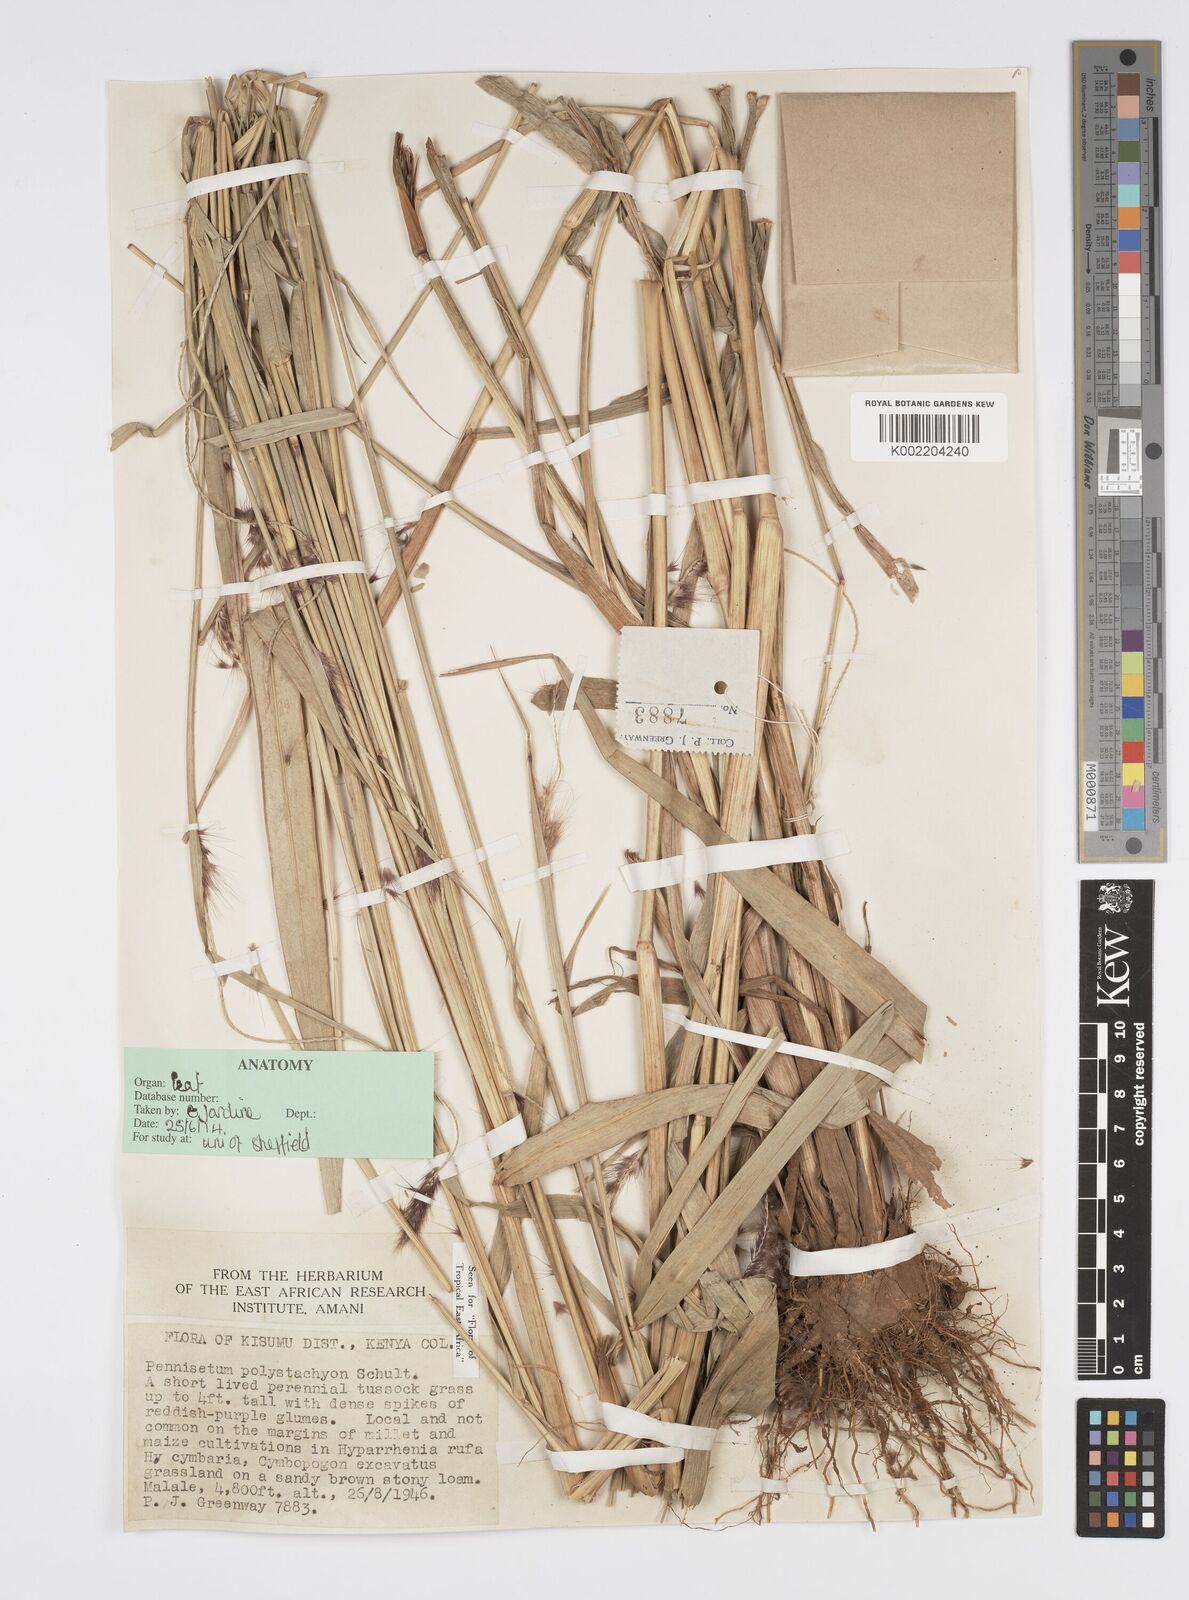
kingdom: Plantae
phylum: Tracheophyta
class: Liliopsida
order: Poales
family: Poaceae
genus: Setaria
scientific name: Setaria parviflora
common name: Knotroot bristle-grass
